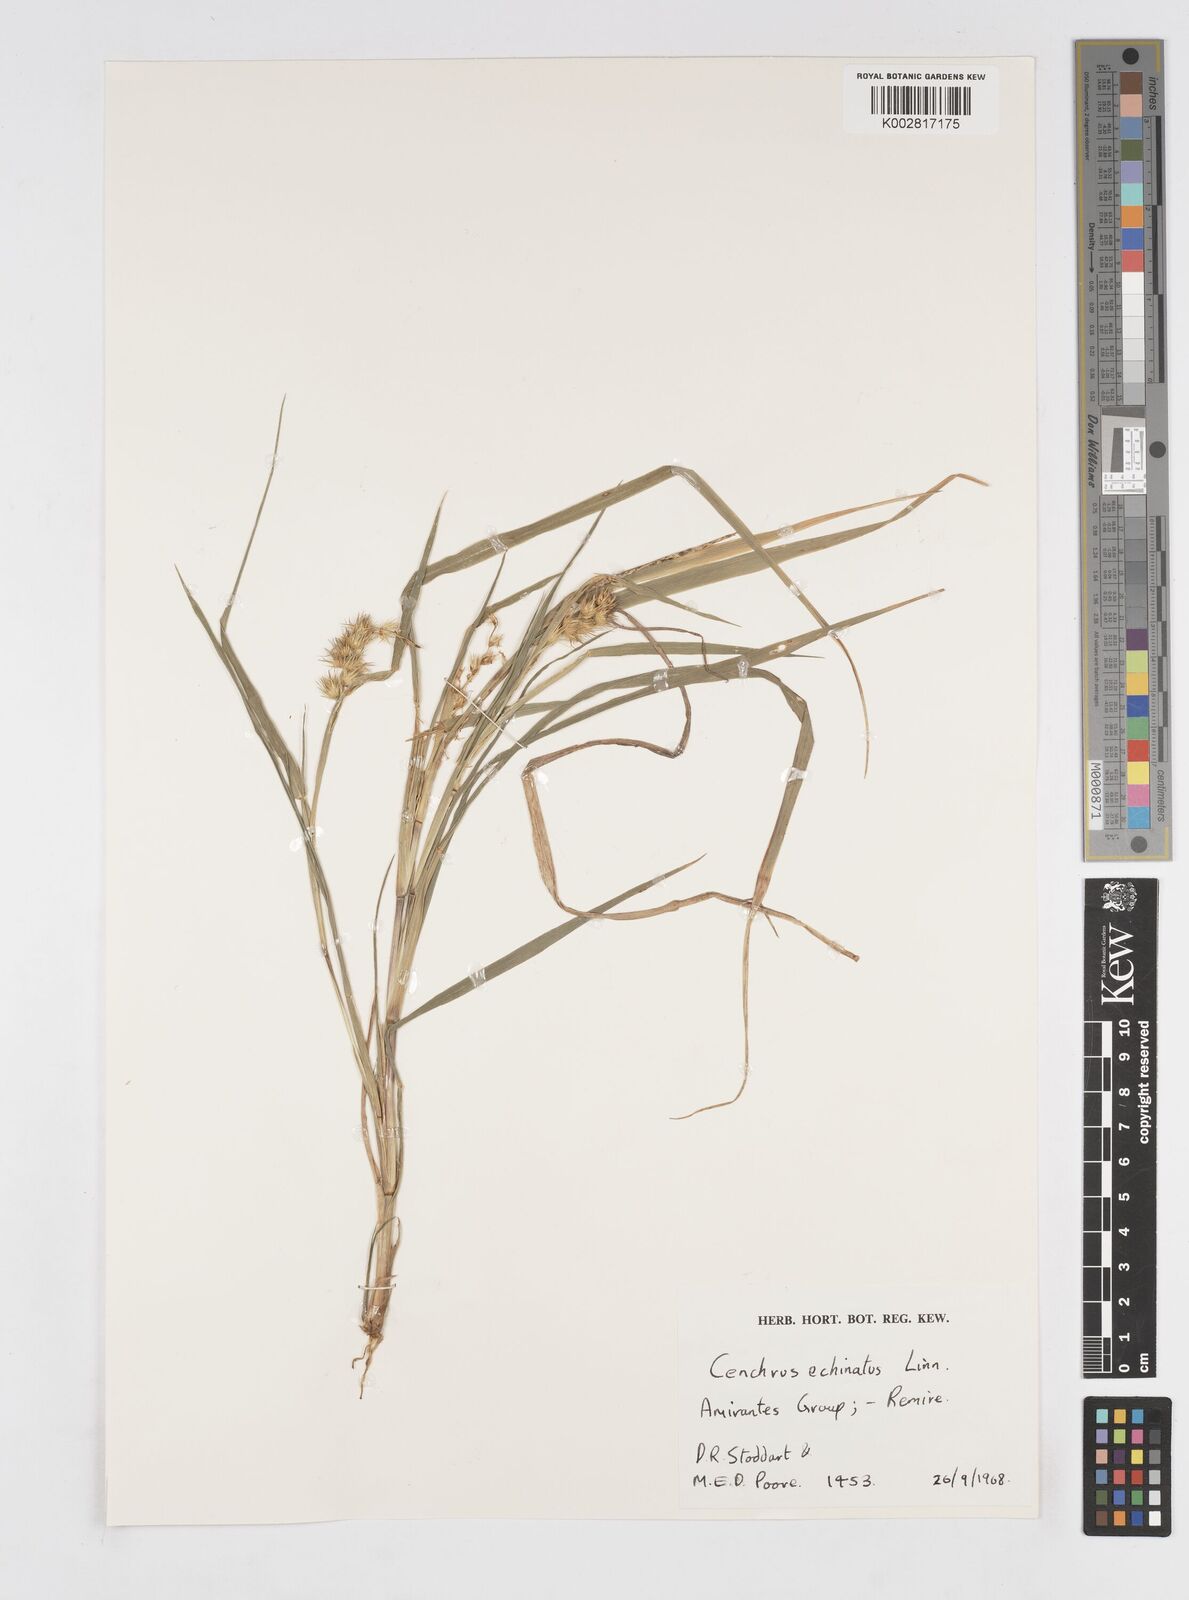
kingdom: Plantae
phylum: Tracheophyta
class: Liliopsida
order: Poales
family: Poaceae
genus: Cenchrus
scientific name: Cenchrus echinatus
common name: Southern sandbur
